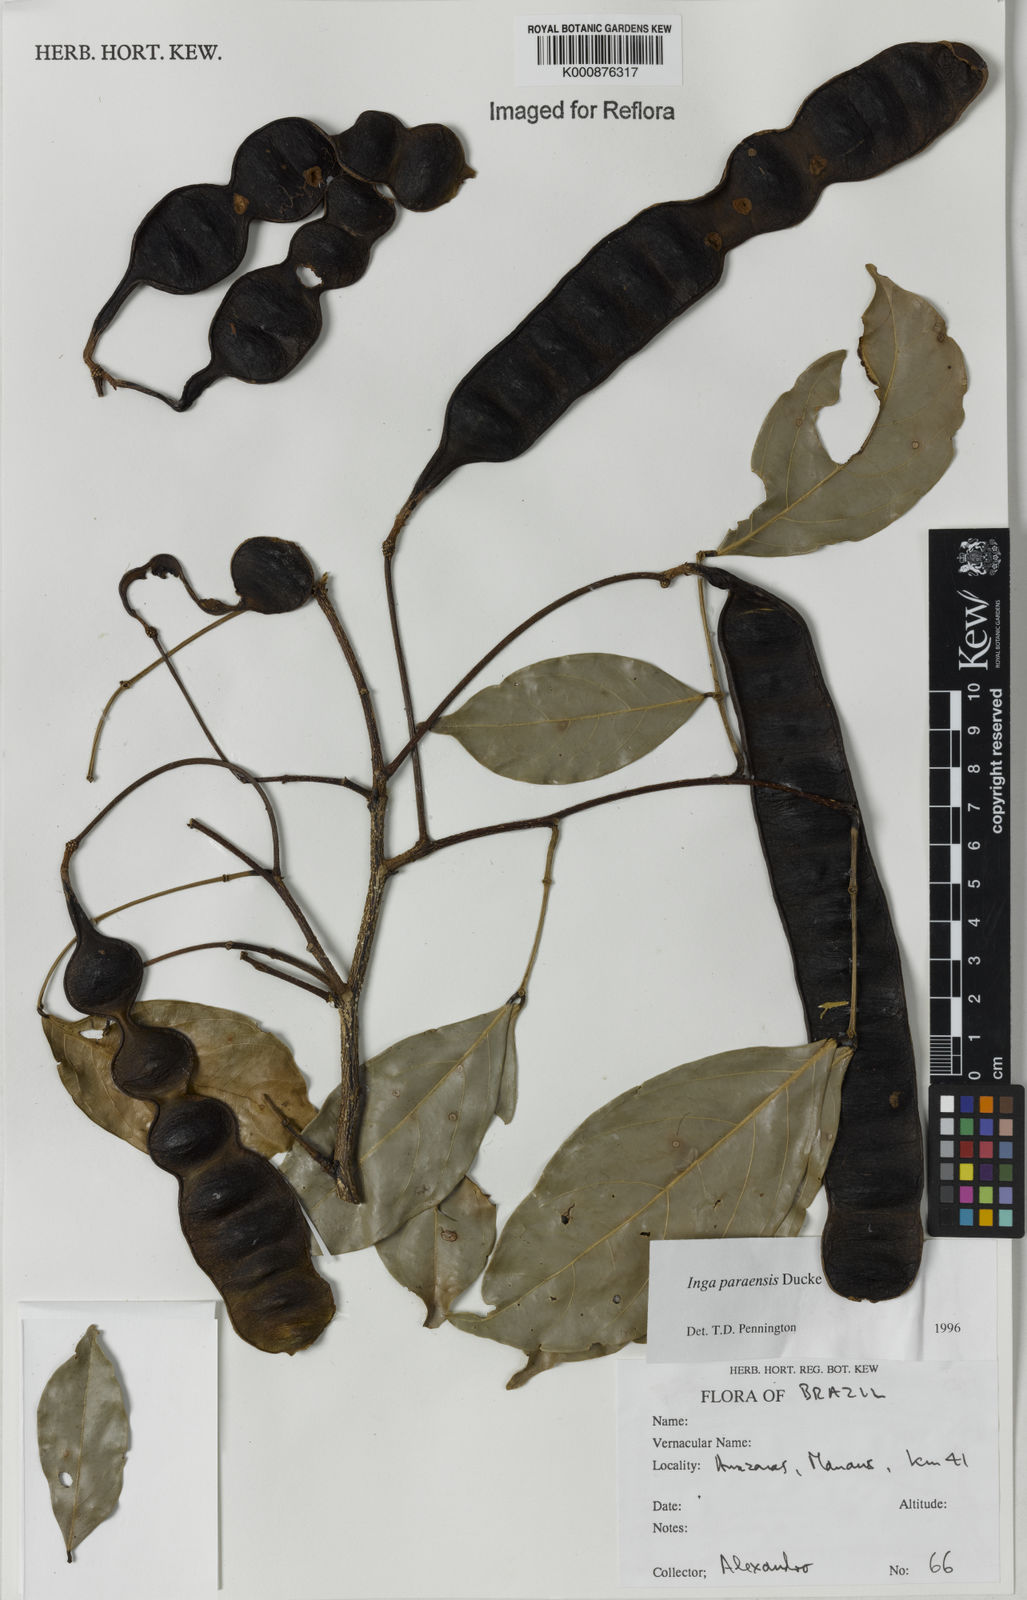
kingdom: Plantae
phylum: Tracheophyta
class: Magnoliopsida
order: Fabales
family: Fabaceae
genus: Inga
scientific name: Inga paraensis
